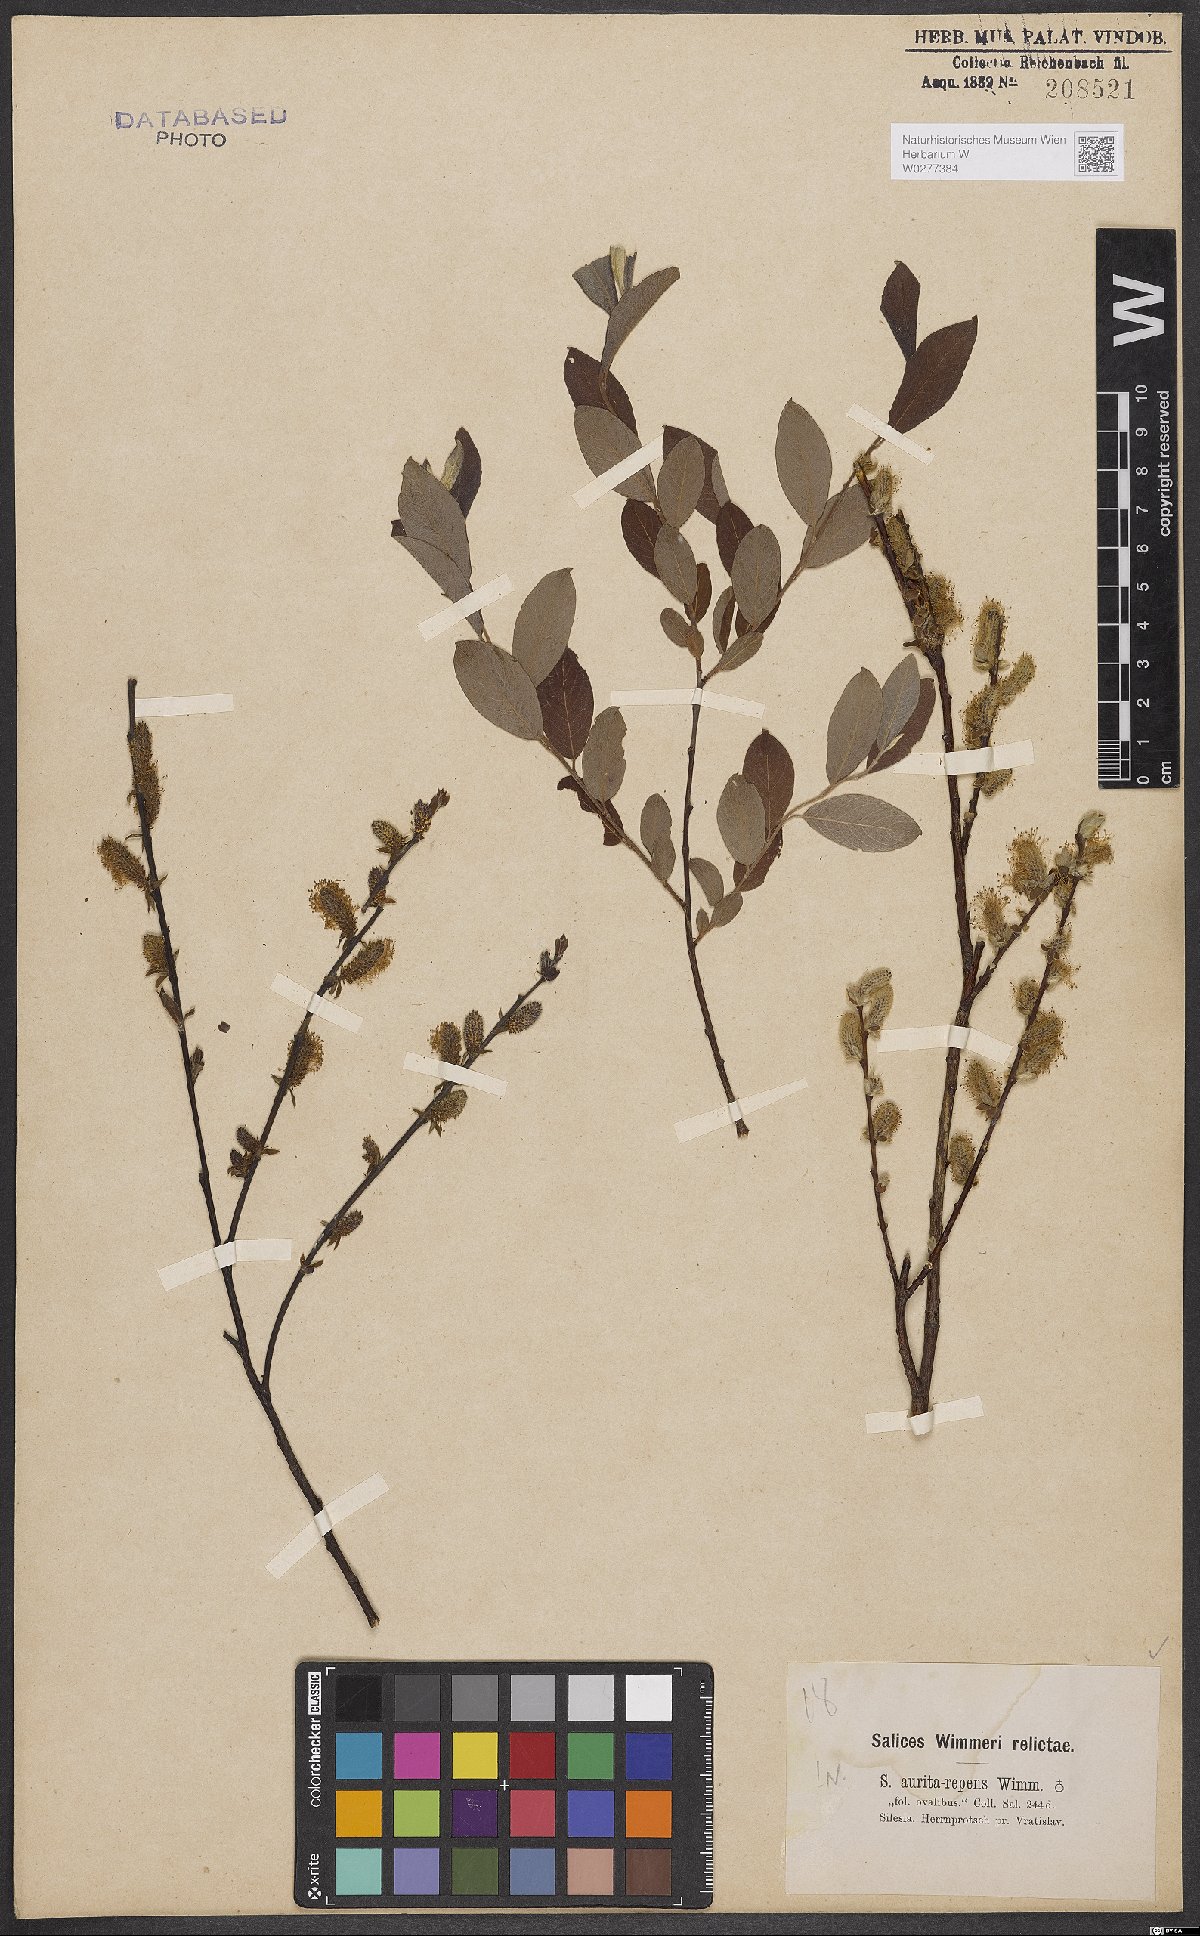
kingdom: Plantae
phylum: Tracheophyta
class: Magnoliopsida
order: Malpighiales
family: Salicaceae
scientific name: Salicaceae
